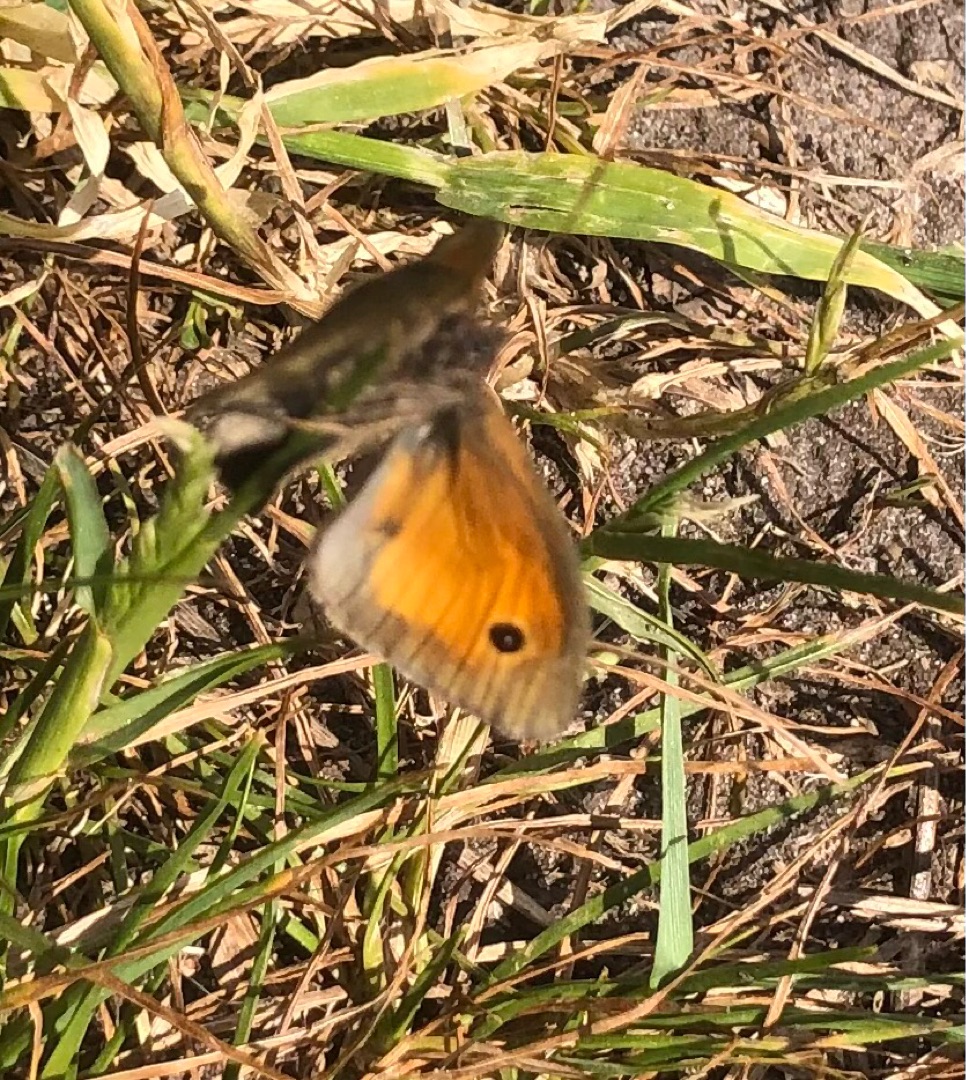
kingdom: Animalia
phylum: Arthropoda
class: Insecta
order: Lepidoptera
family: Nymphalidae
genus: Maniola
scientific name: Maniola jurtina
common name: Græsrandøje
